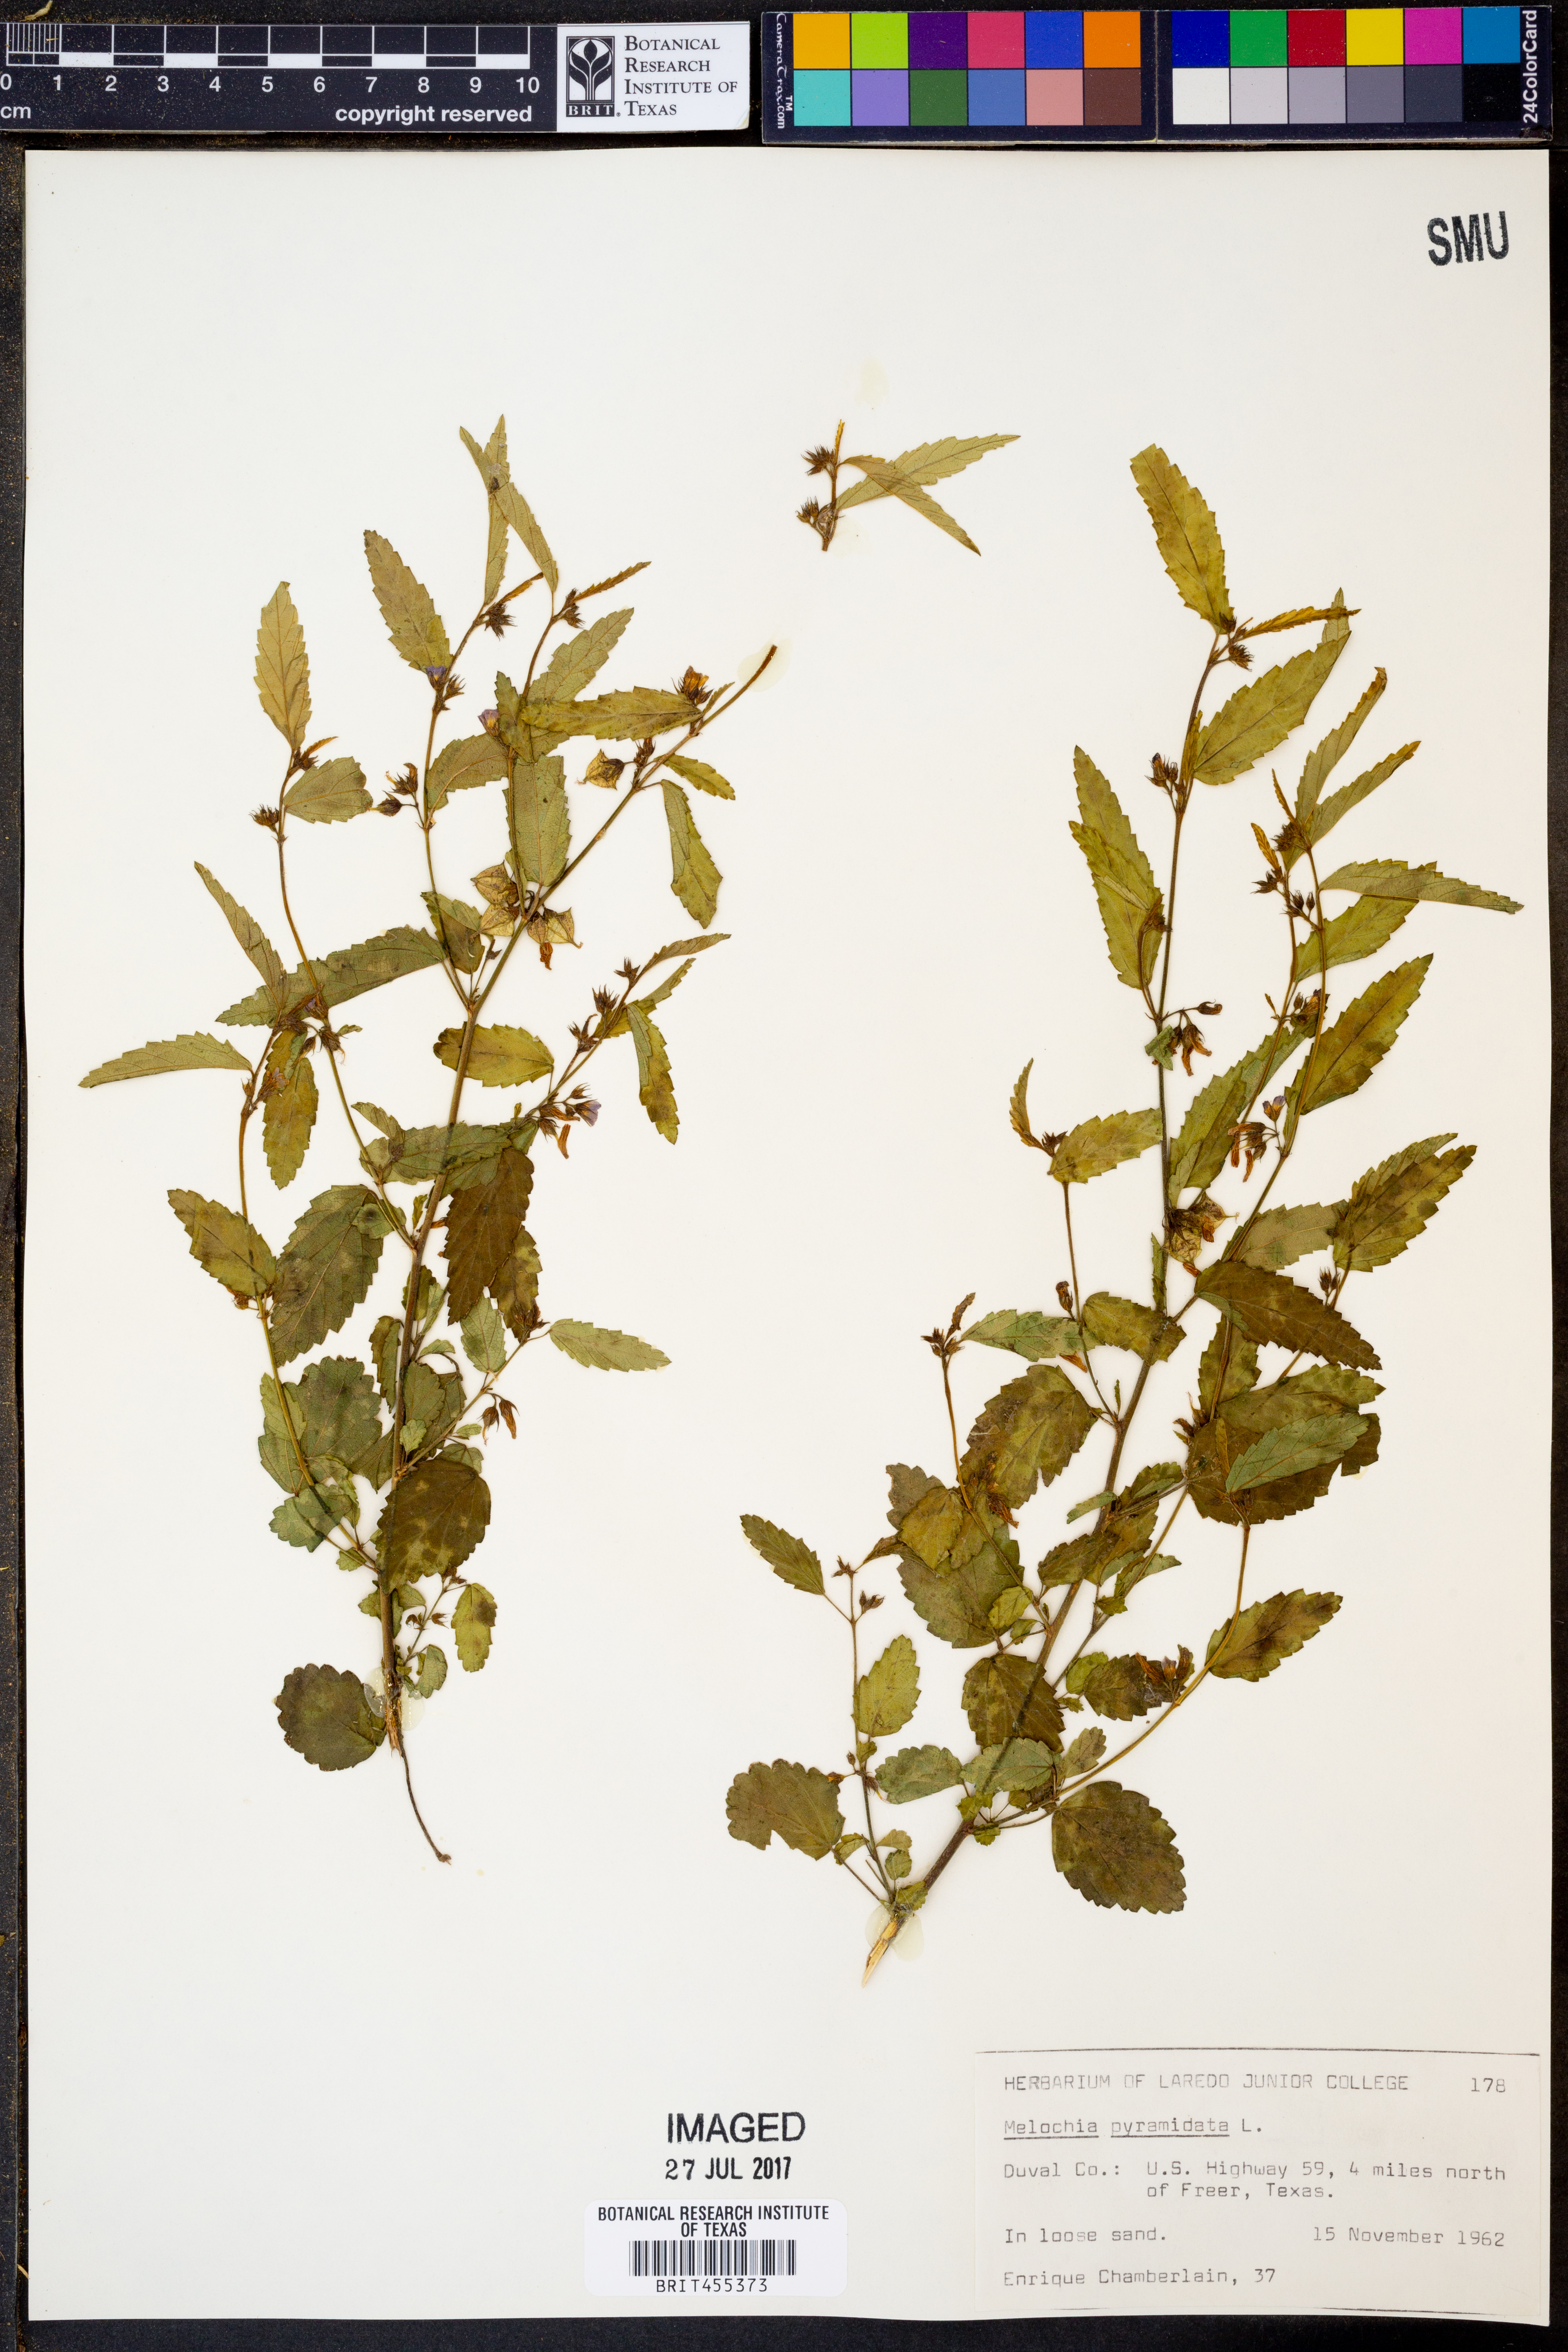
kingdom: Plantae
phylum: Tracheophyta
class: Magnoliopsida
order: Malvales
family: Malvaceae
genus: Melochia
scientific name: Melochia pyramidata
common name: Pyramidflower
